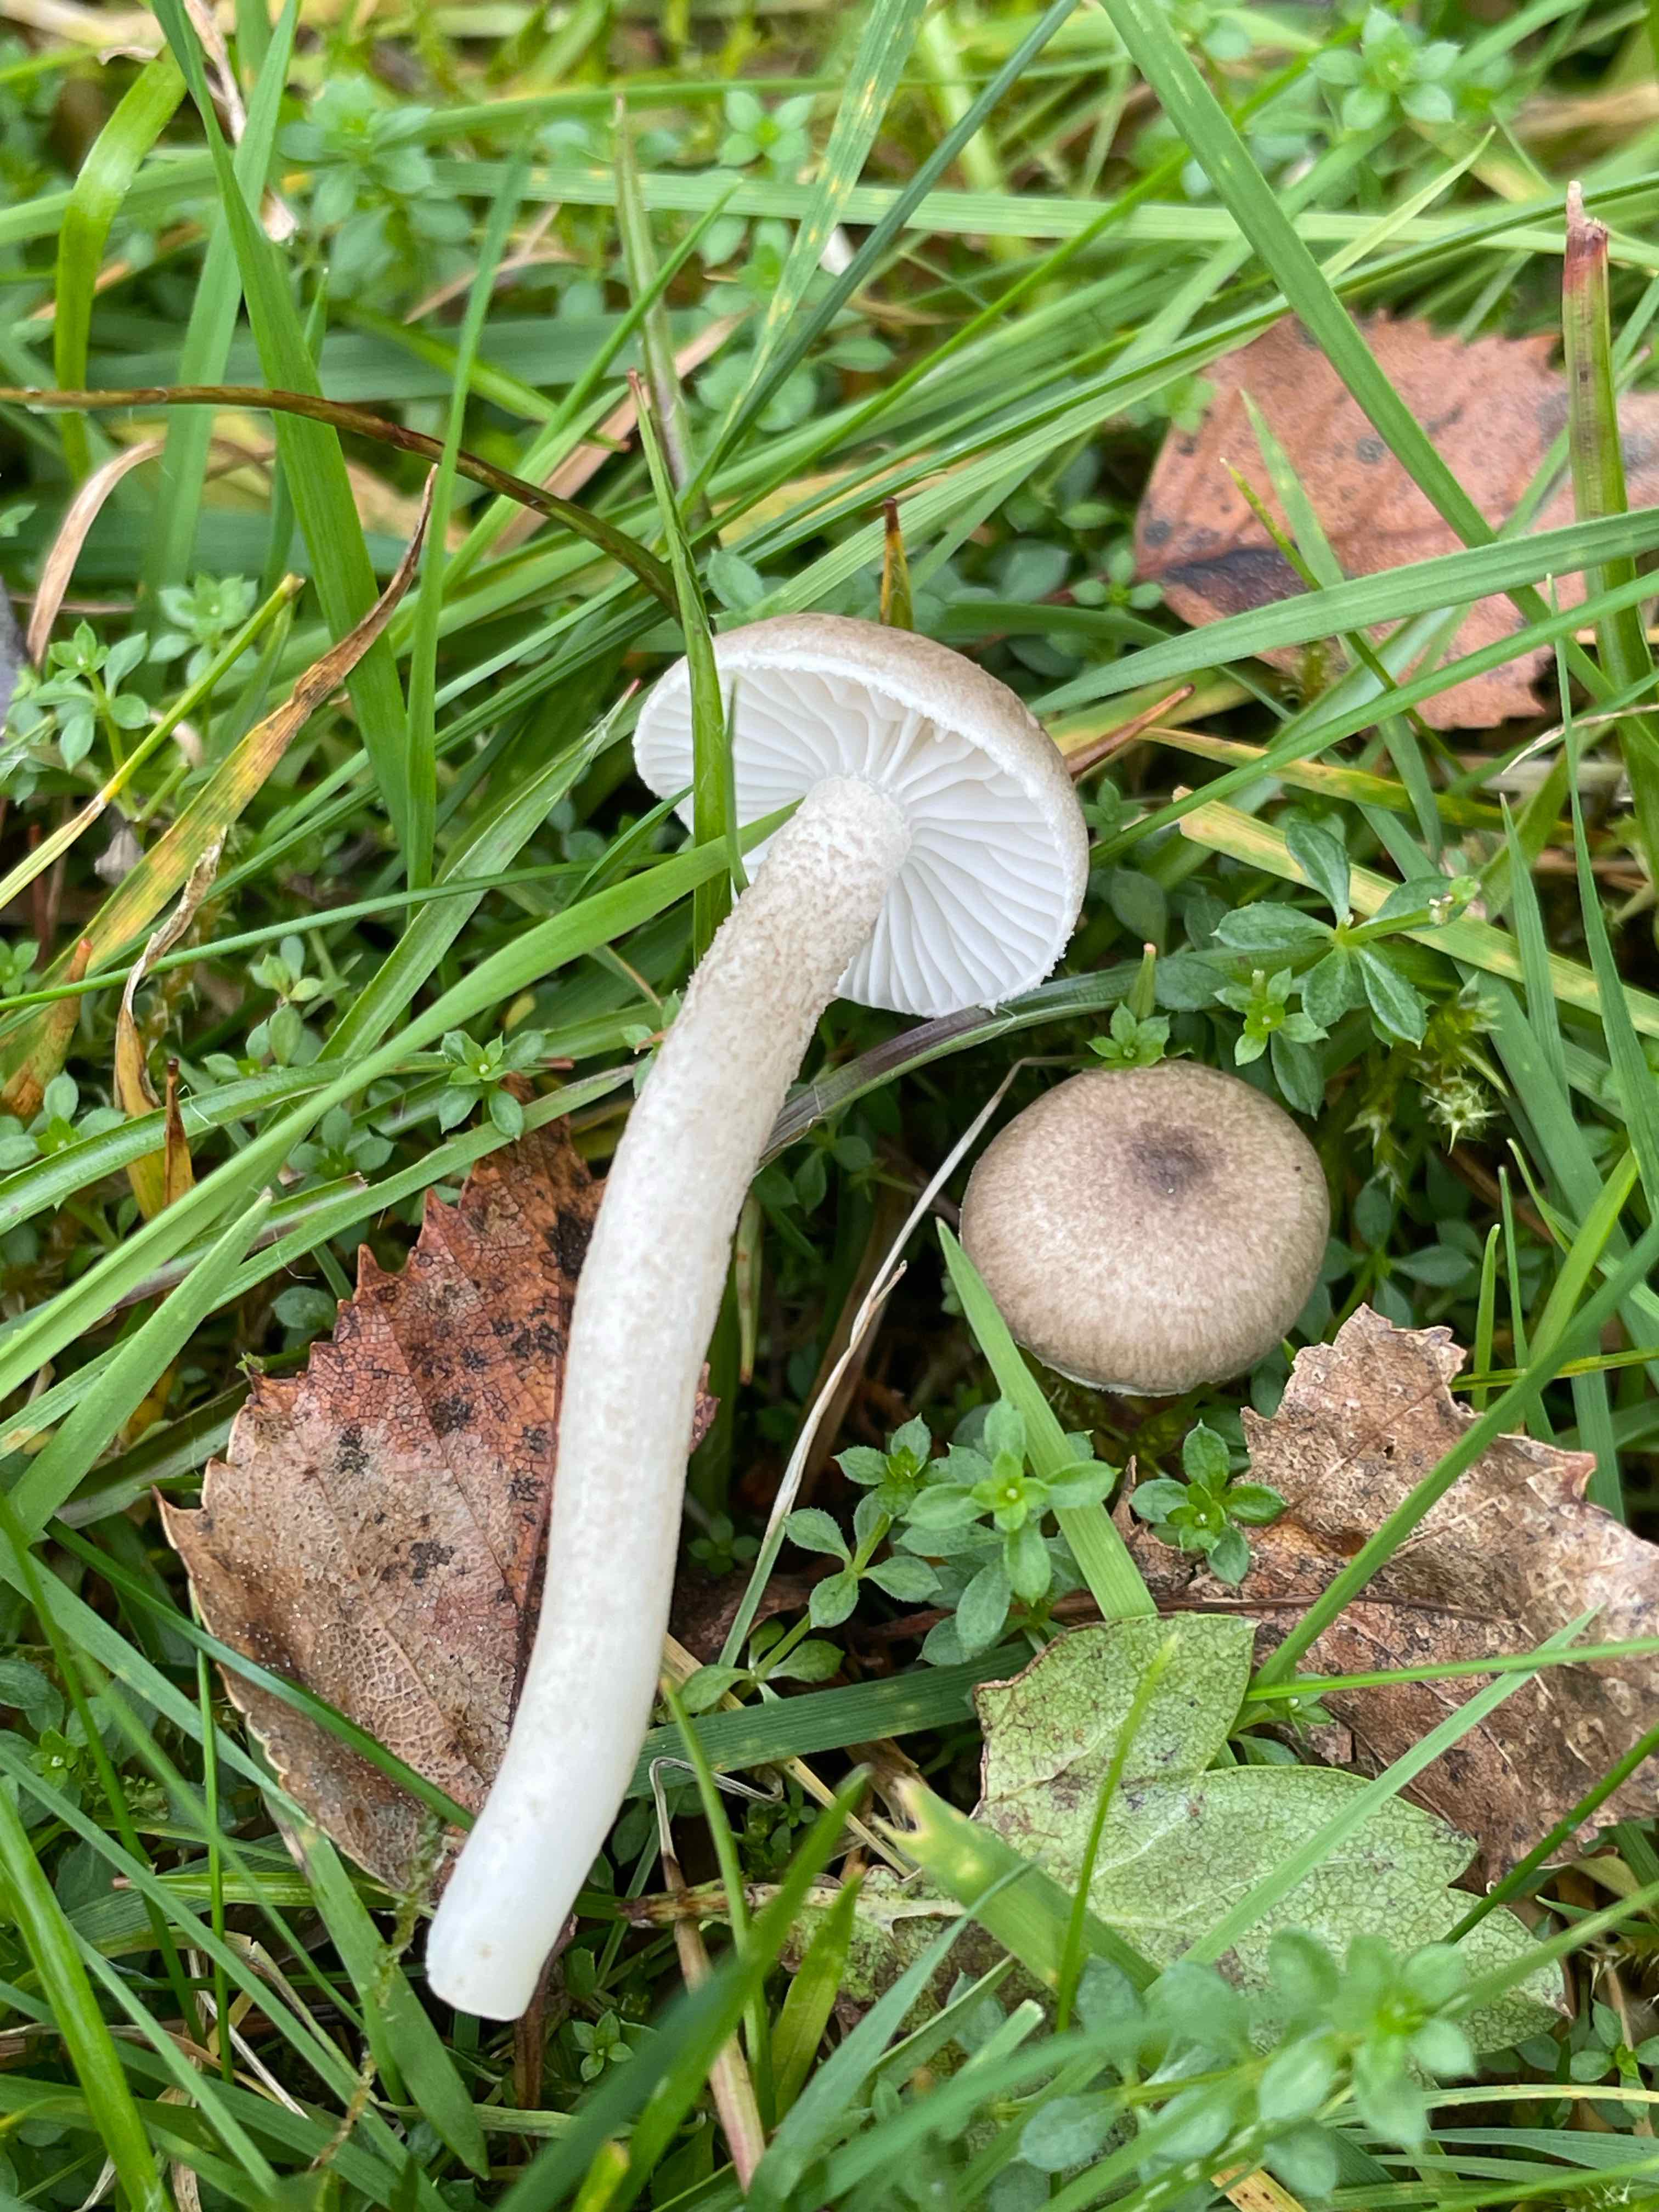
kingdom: Fungi
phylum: Basidiomycota
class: Agaricomycetes
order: Agaricales
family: Hygrophoraceae
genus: Hygrophorus
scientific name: Hygrophorus pustulatus
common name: mørkprikket sneglehat
